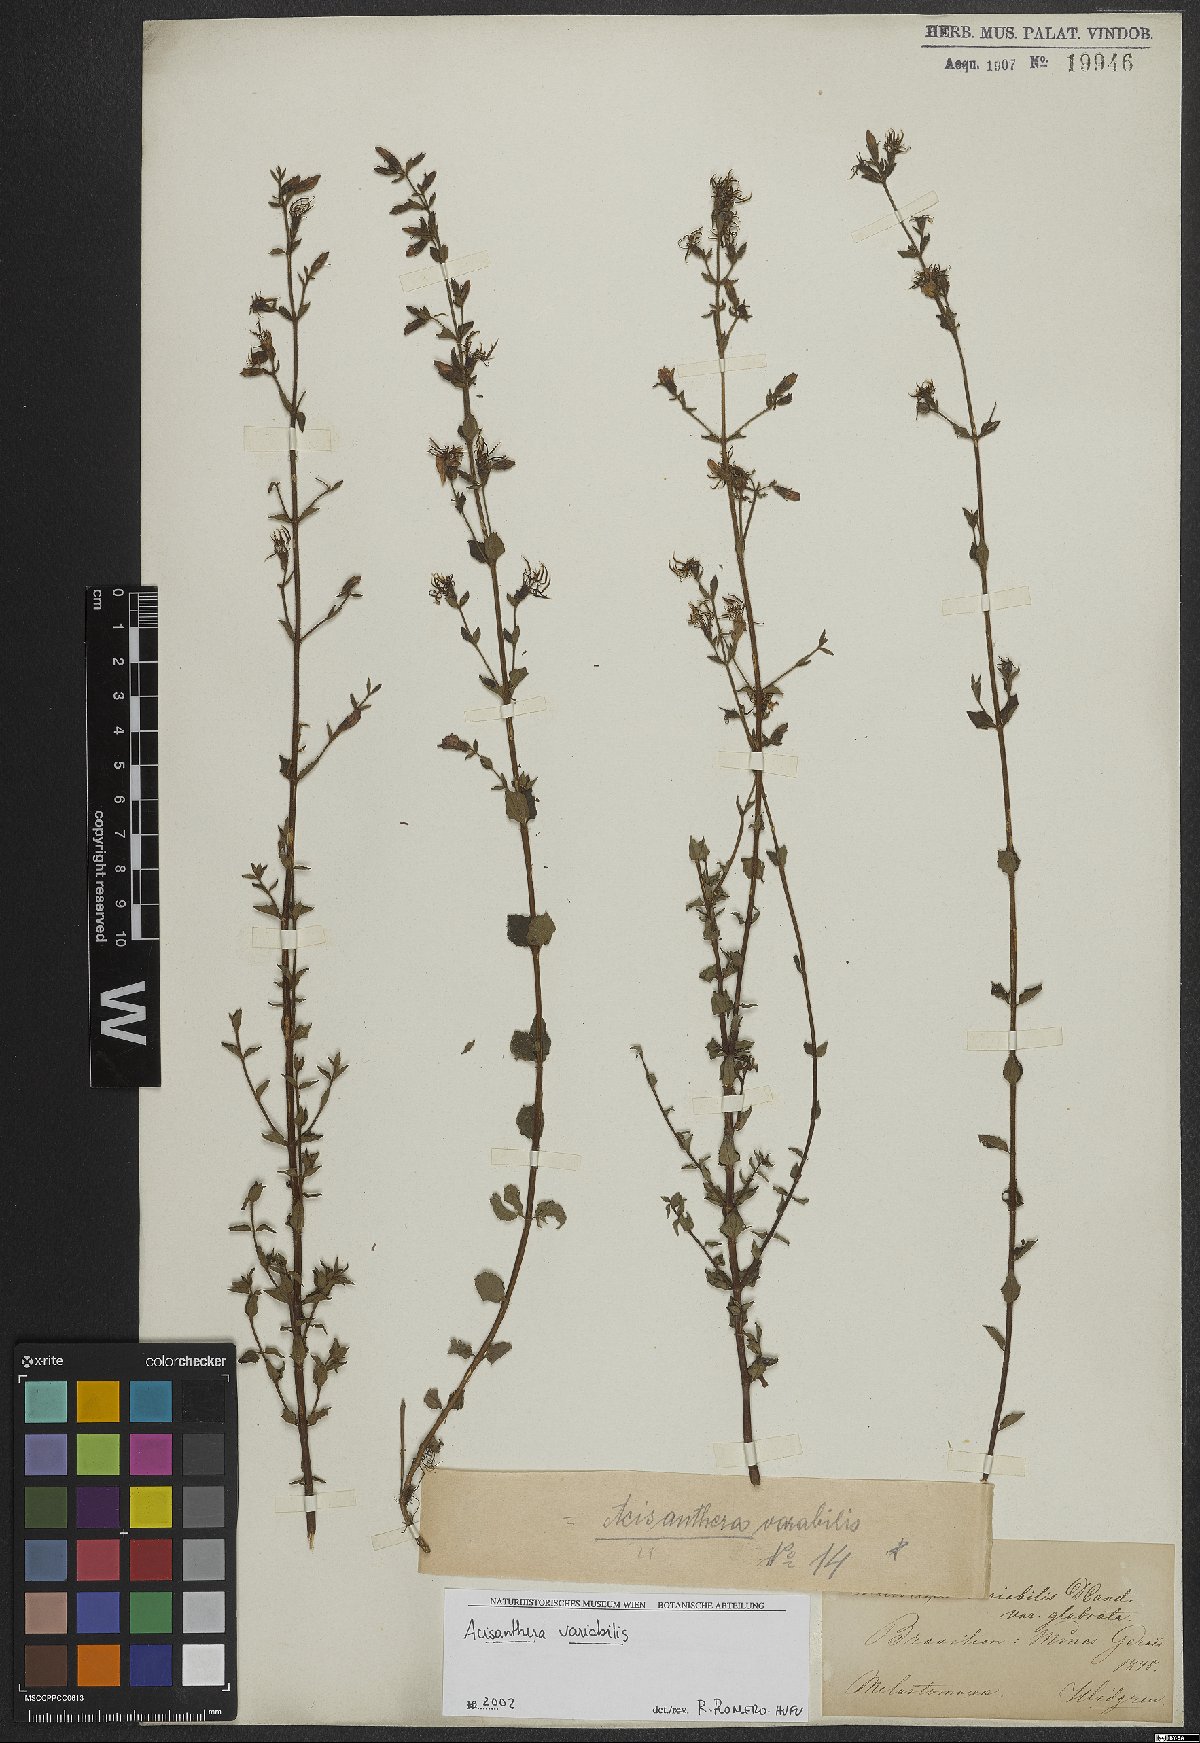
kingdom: Plantae
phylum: Tracheophyta
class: Magnoliopsida
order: Myrtales
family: Melastomataceae
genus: Acisanthera
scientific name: Acisanthera variabilis
